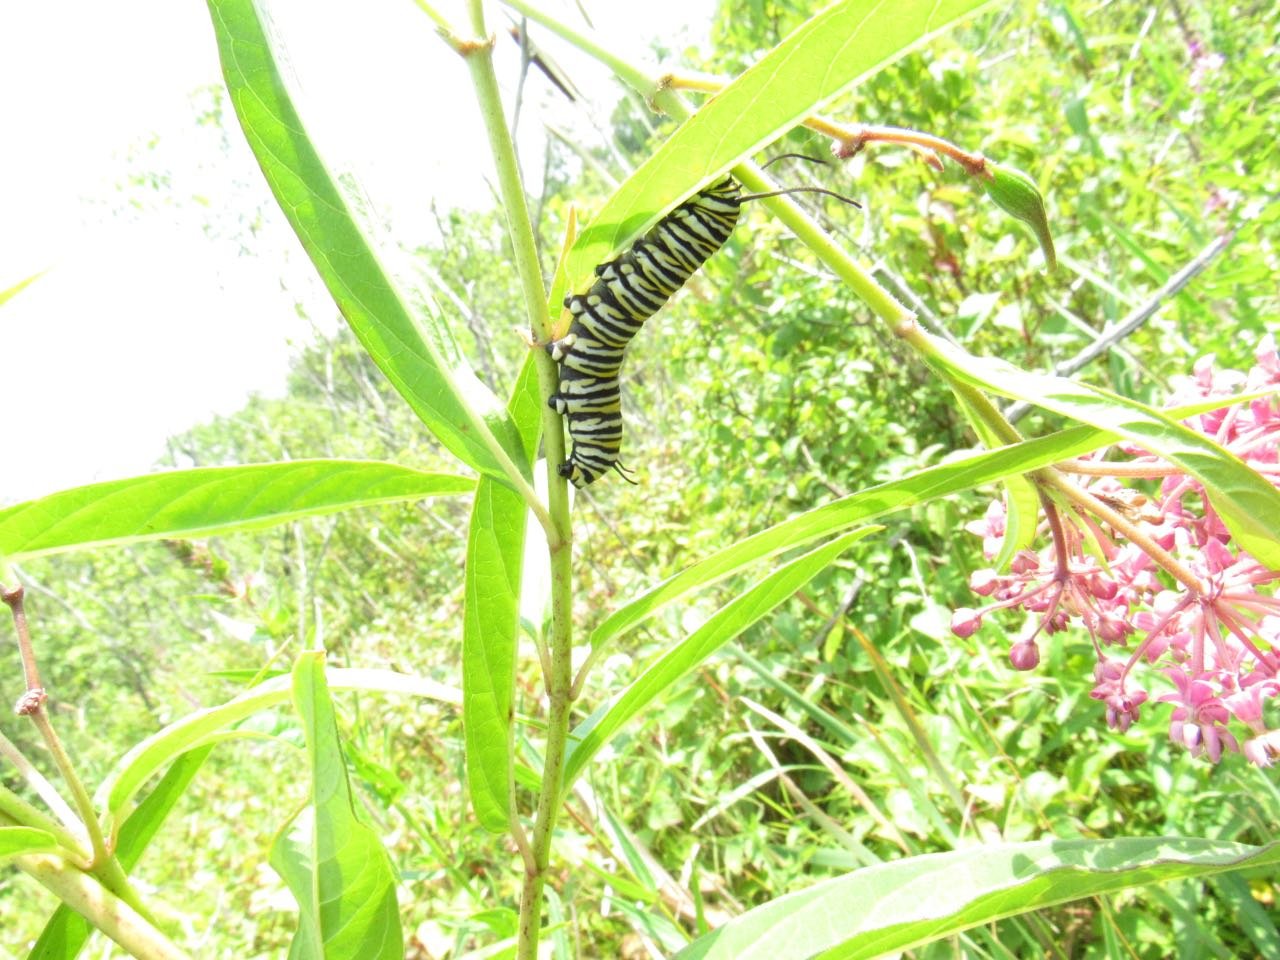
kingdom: Animalia
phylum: Arthropoda
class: Insecta
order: Lepidoptera
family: Nymphalidae
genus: Danaus
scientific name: Danaus plexippus
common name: Monarch
